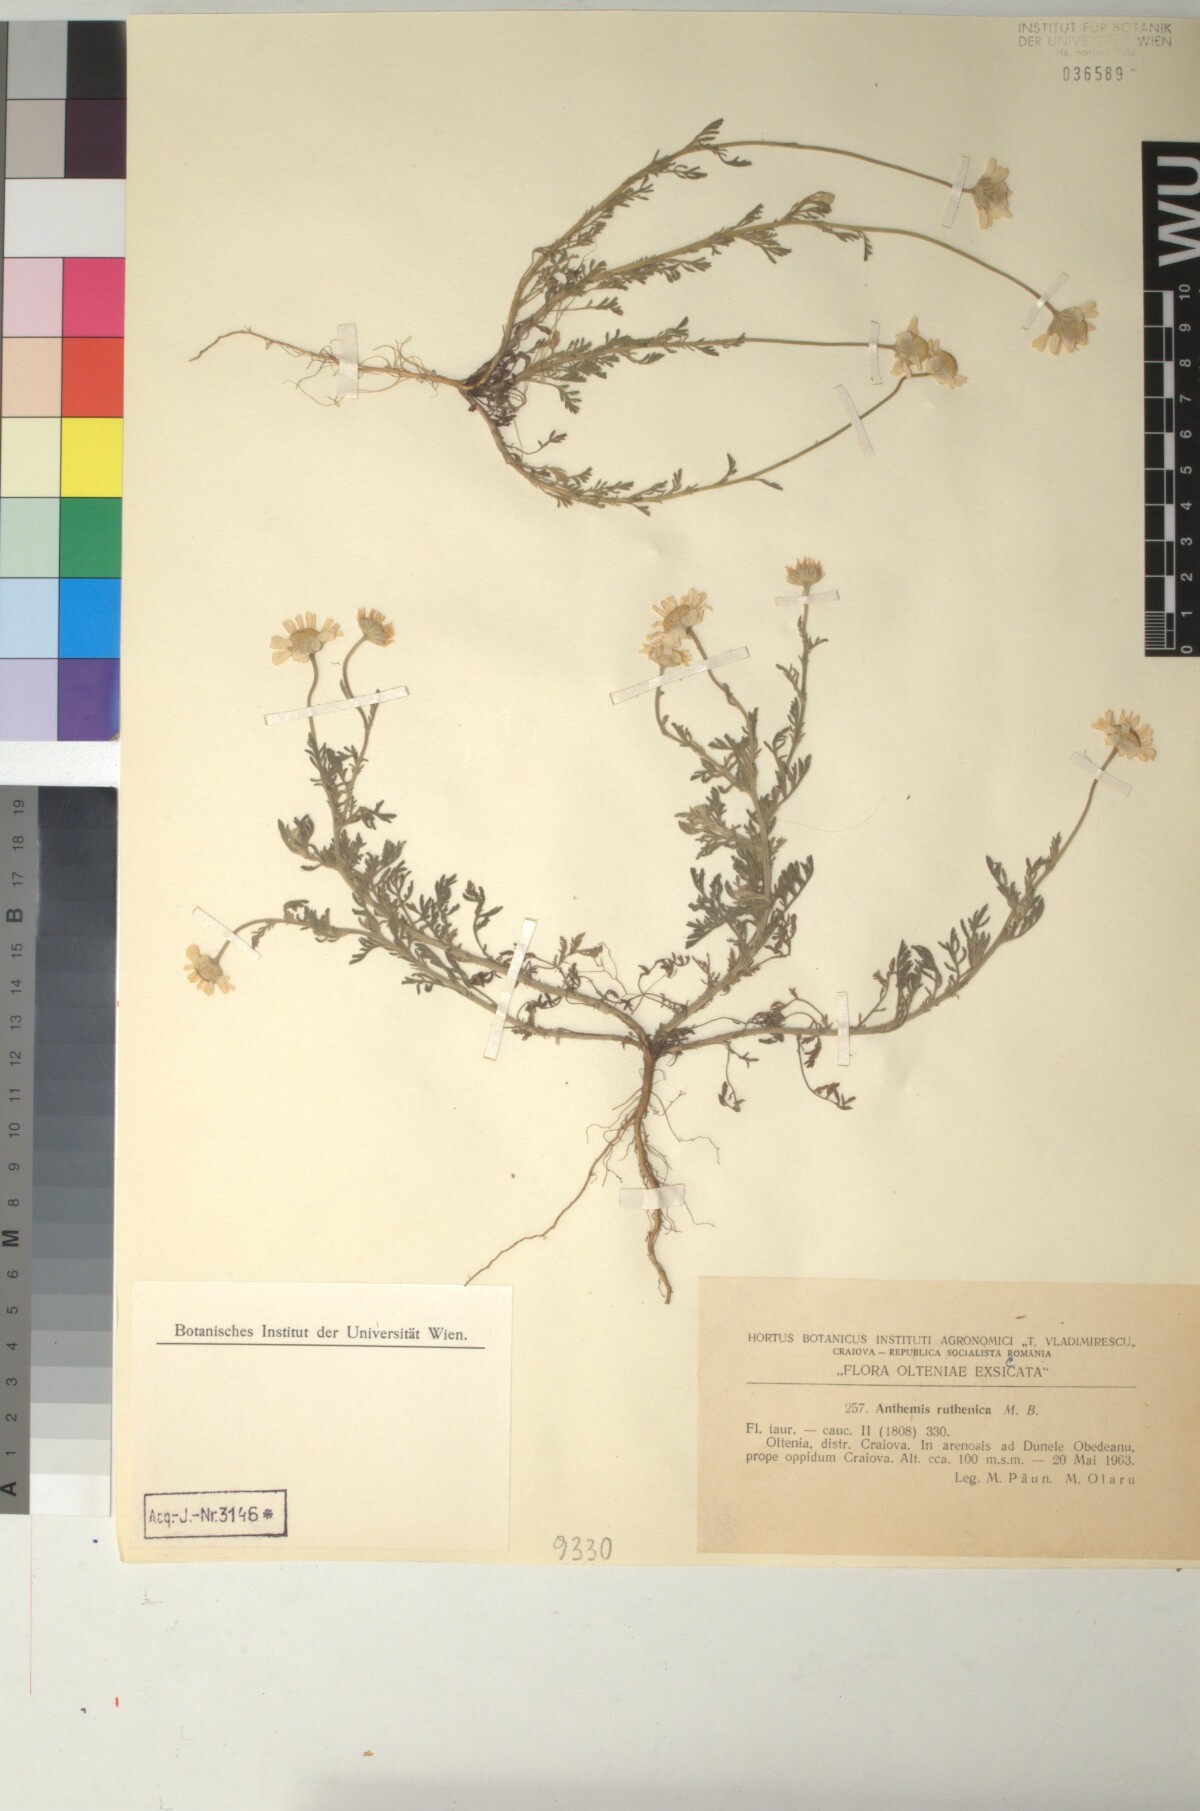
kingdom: Plantae
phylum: Tracheophyta
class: Magnoliopsida
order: Asterales
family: Asteraceae
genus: Anthemis
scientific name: Anthemis ruthenica
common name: Eastern chamomile
